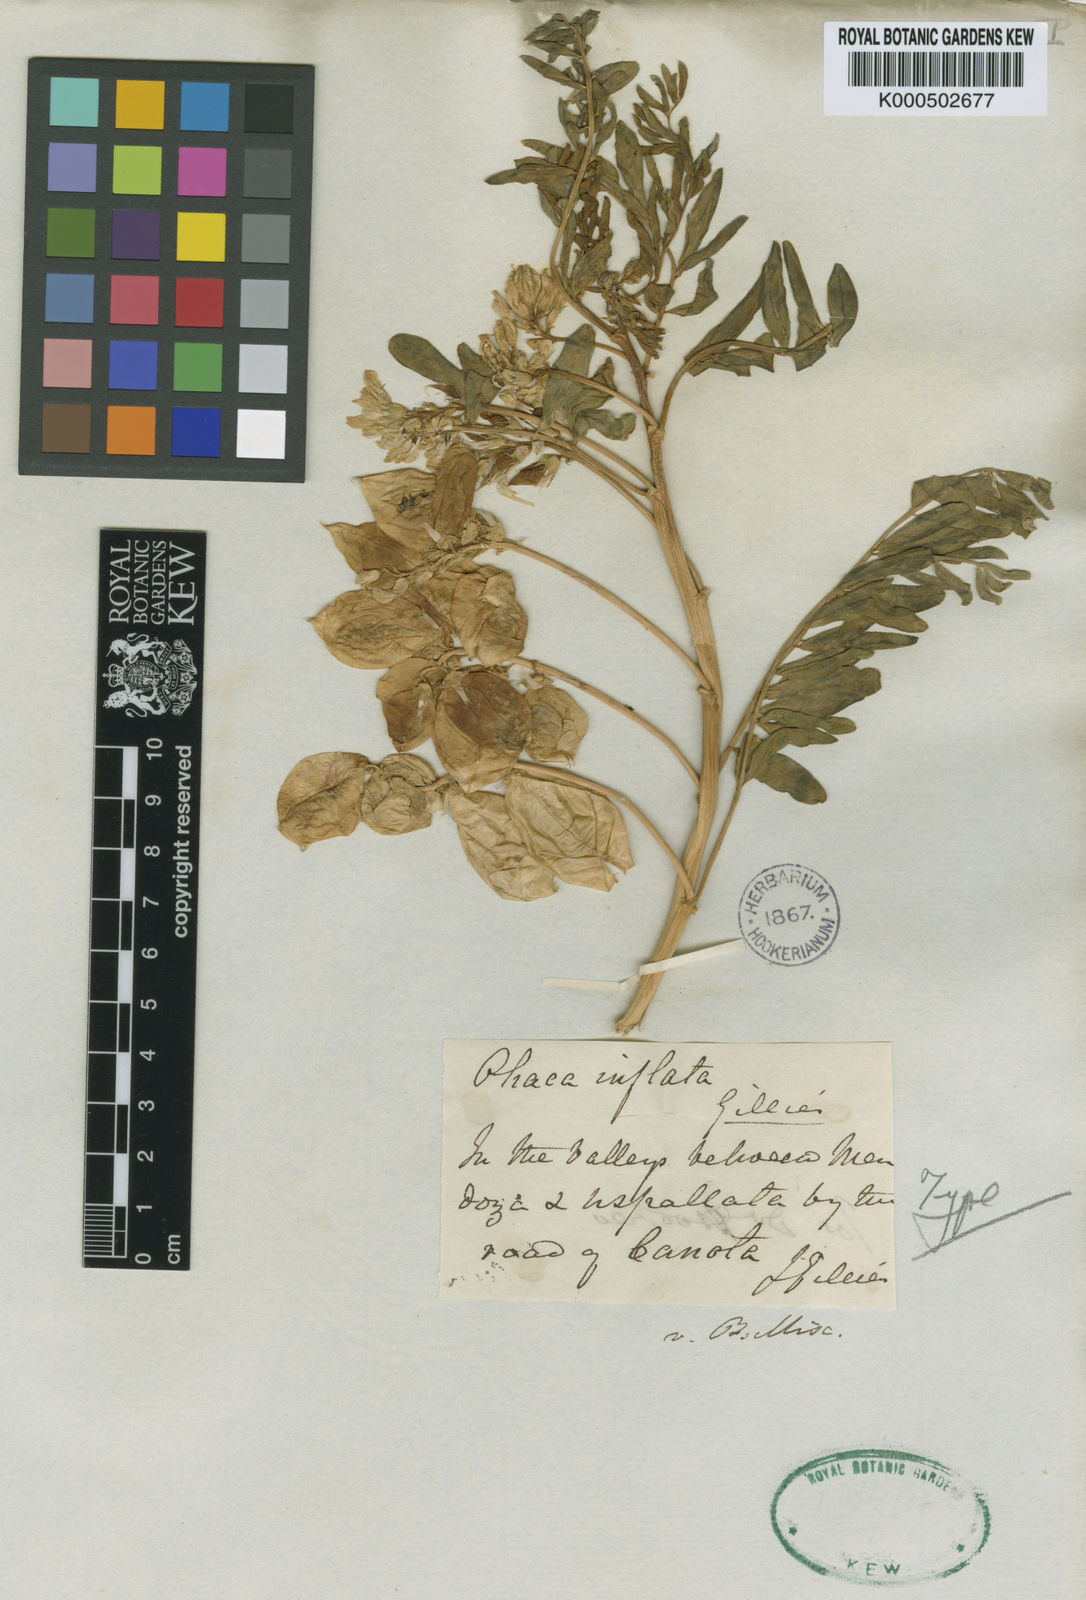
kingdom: Plantae
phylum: Tracheophyta
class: Magnoliopsida
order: Fabales
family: Fabaceae
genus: Astragalus
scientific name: Astragalus pehuenches
